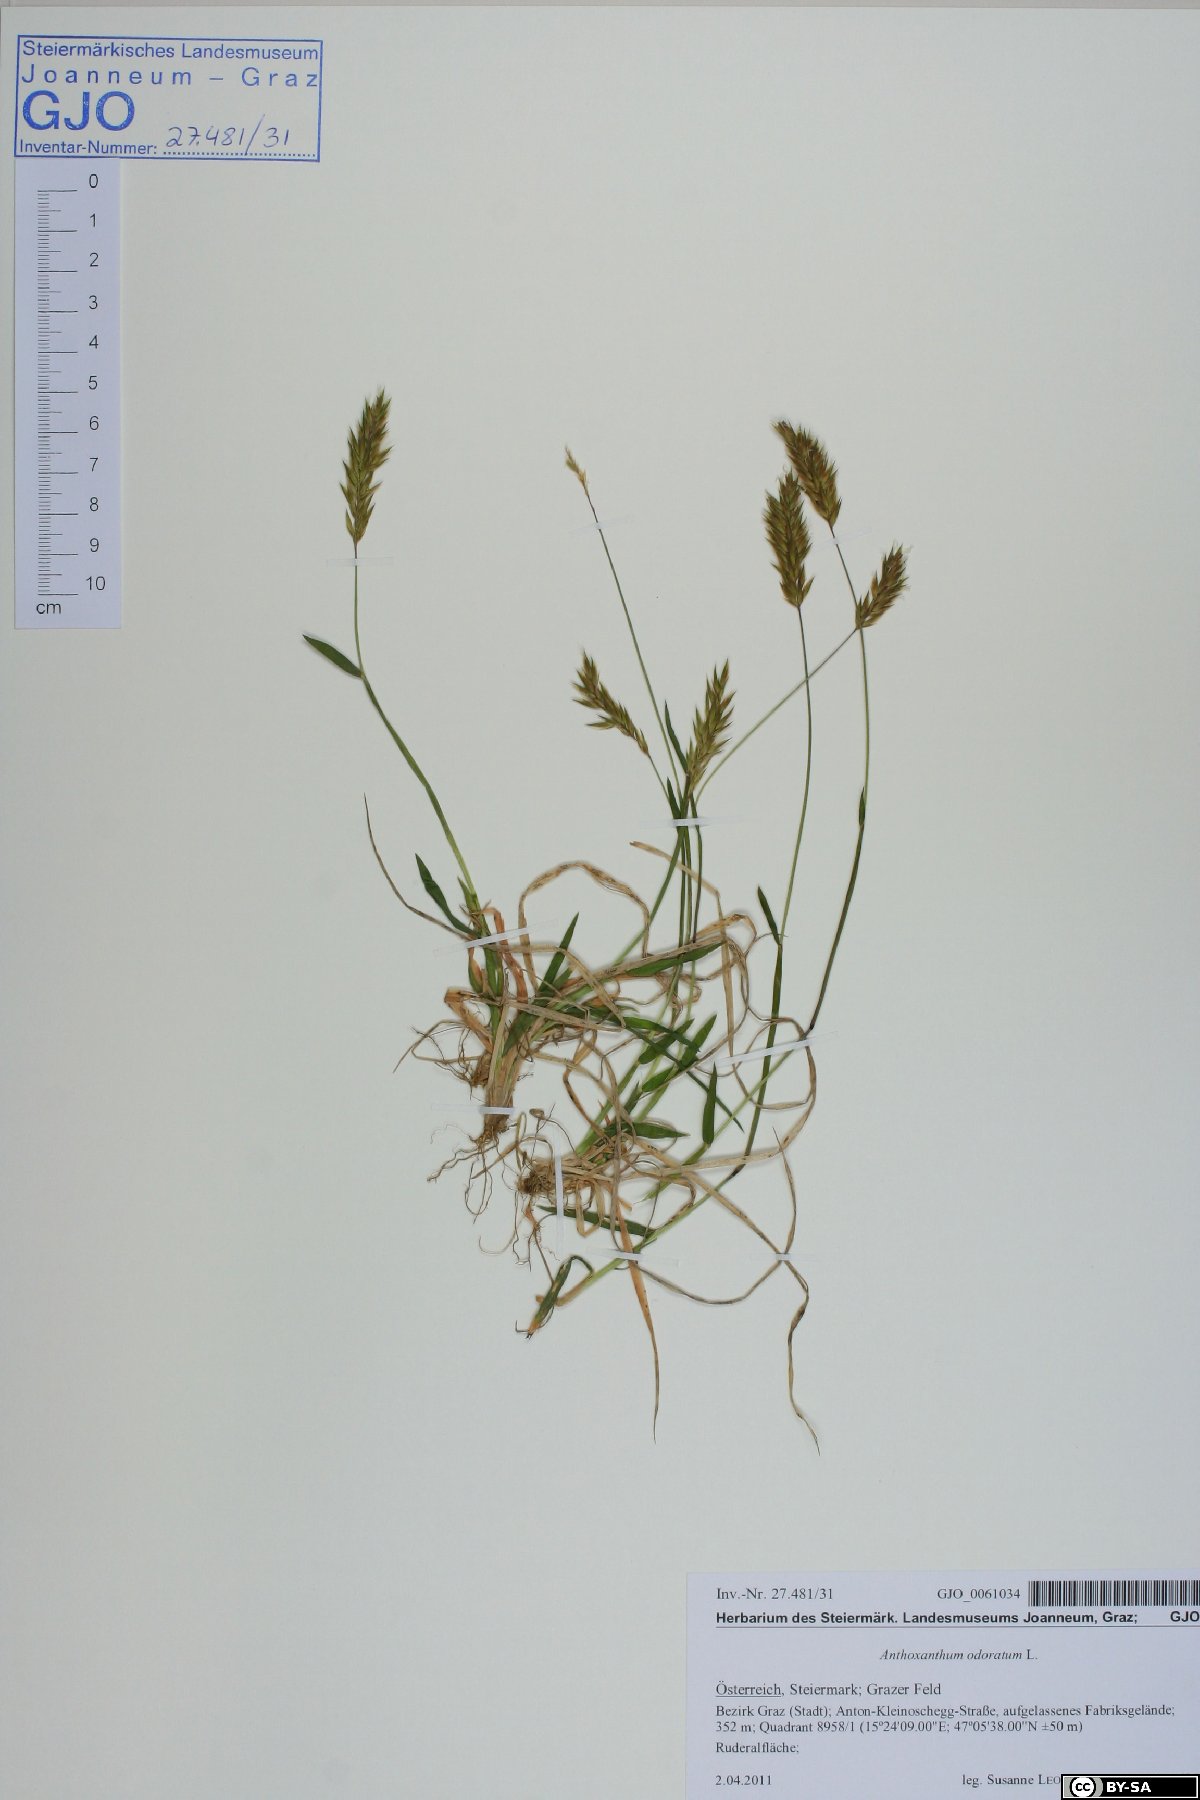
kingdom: Plantae
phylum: Tracheophyta
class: Liliopsida
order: Poales
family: Poaceae
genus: Anthoxanthum
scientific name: Anthoxanthum odoratum
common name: Sweet vernalgrass
